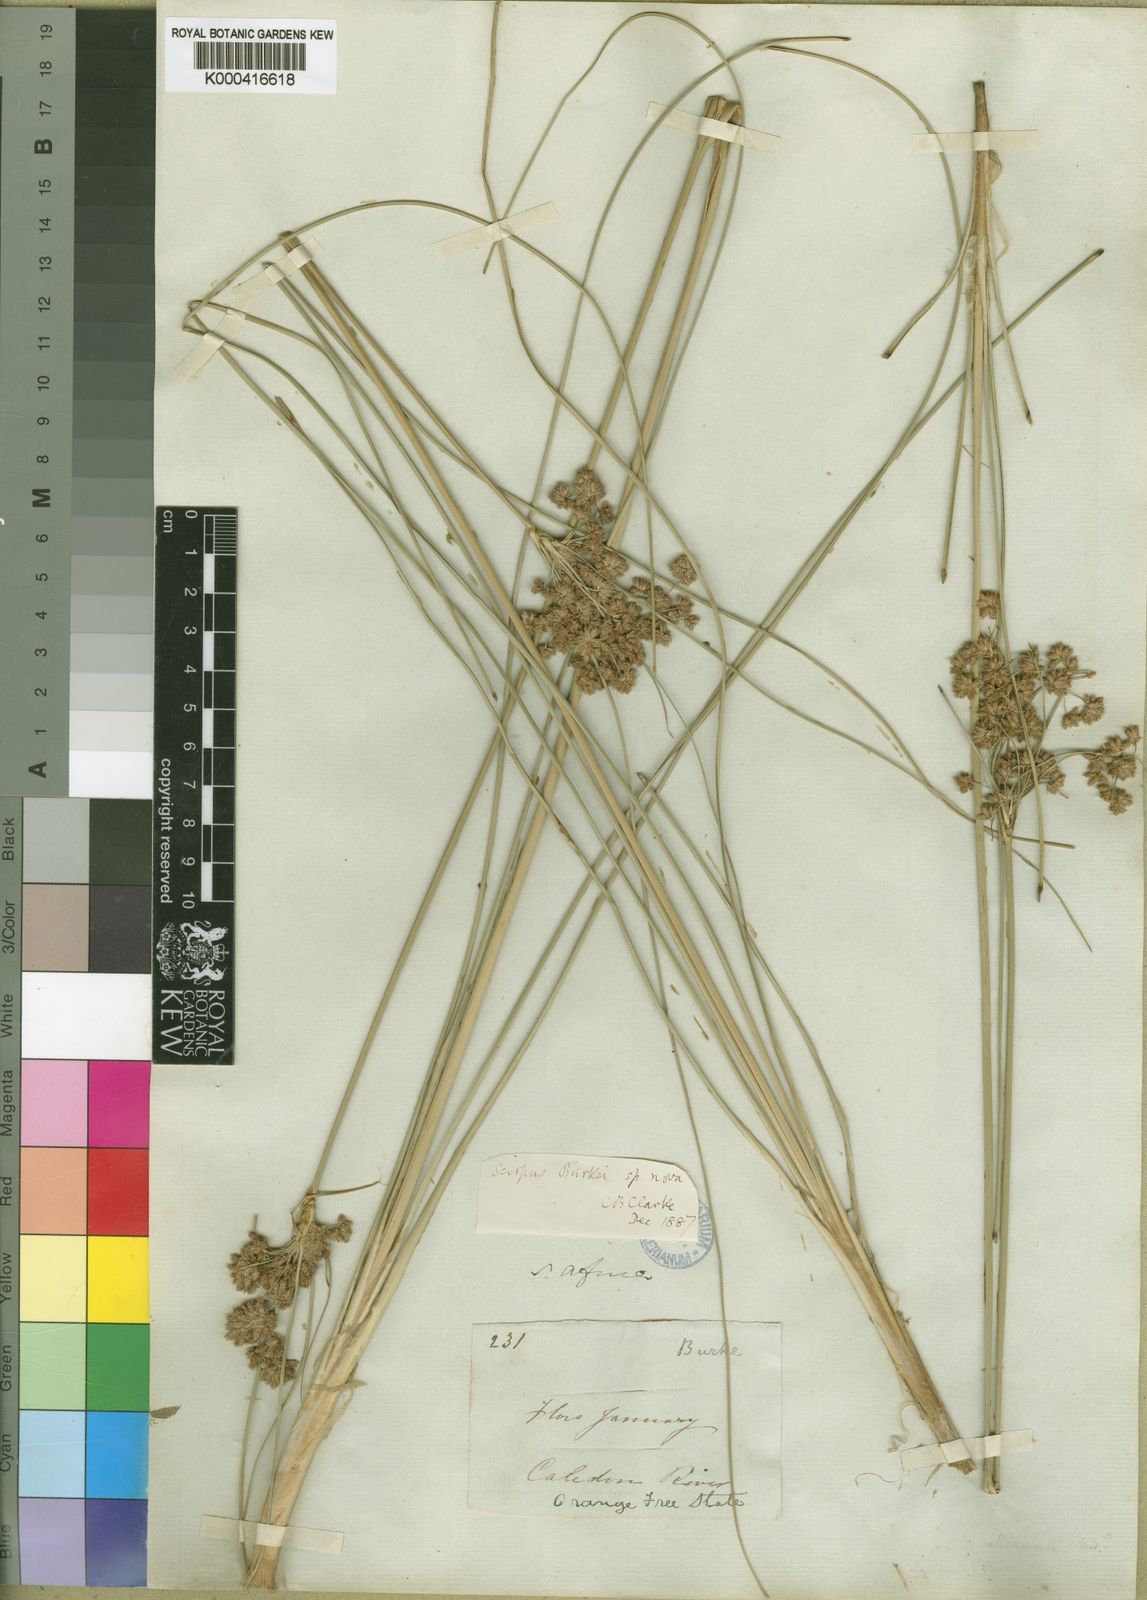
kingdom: Plantae
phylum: Tracheophyta
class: Liliopsida
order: Poales
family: Cyperaceae
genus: Scirpoides
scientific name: Scirpoides burkei
